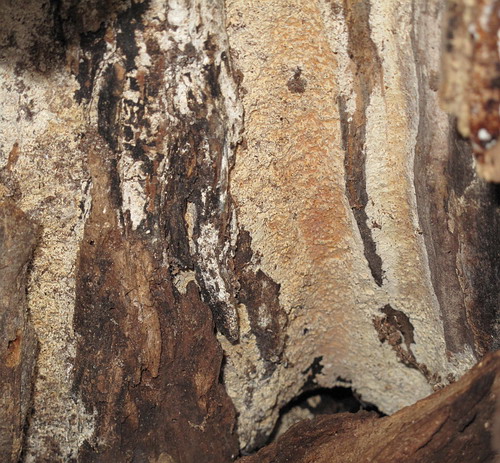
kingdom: Fungi
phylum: Basidiomycota
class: Agaricomycetes
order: Polyporales
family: Fomitopsidaceae
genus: Antrodia
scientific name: Antrodia griseoflavescens
